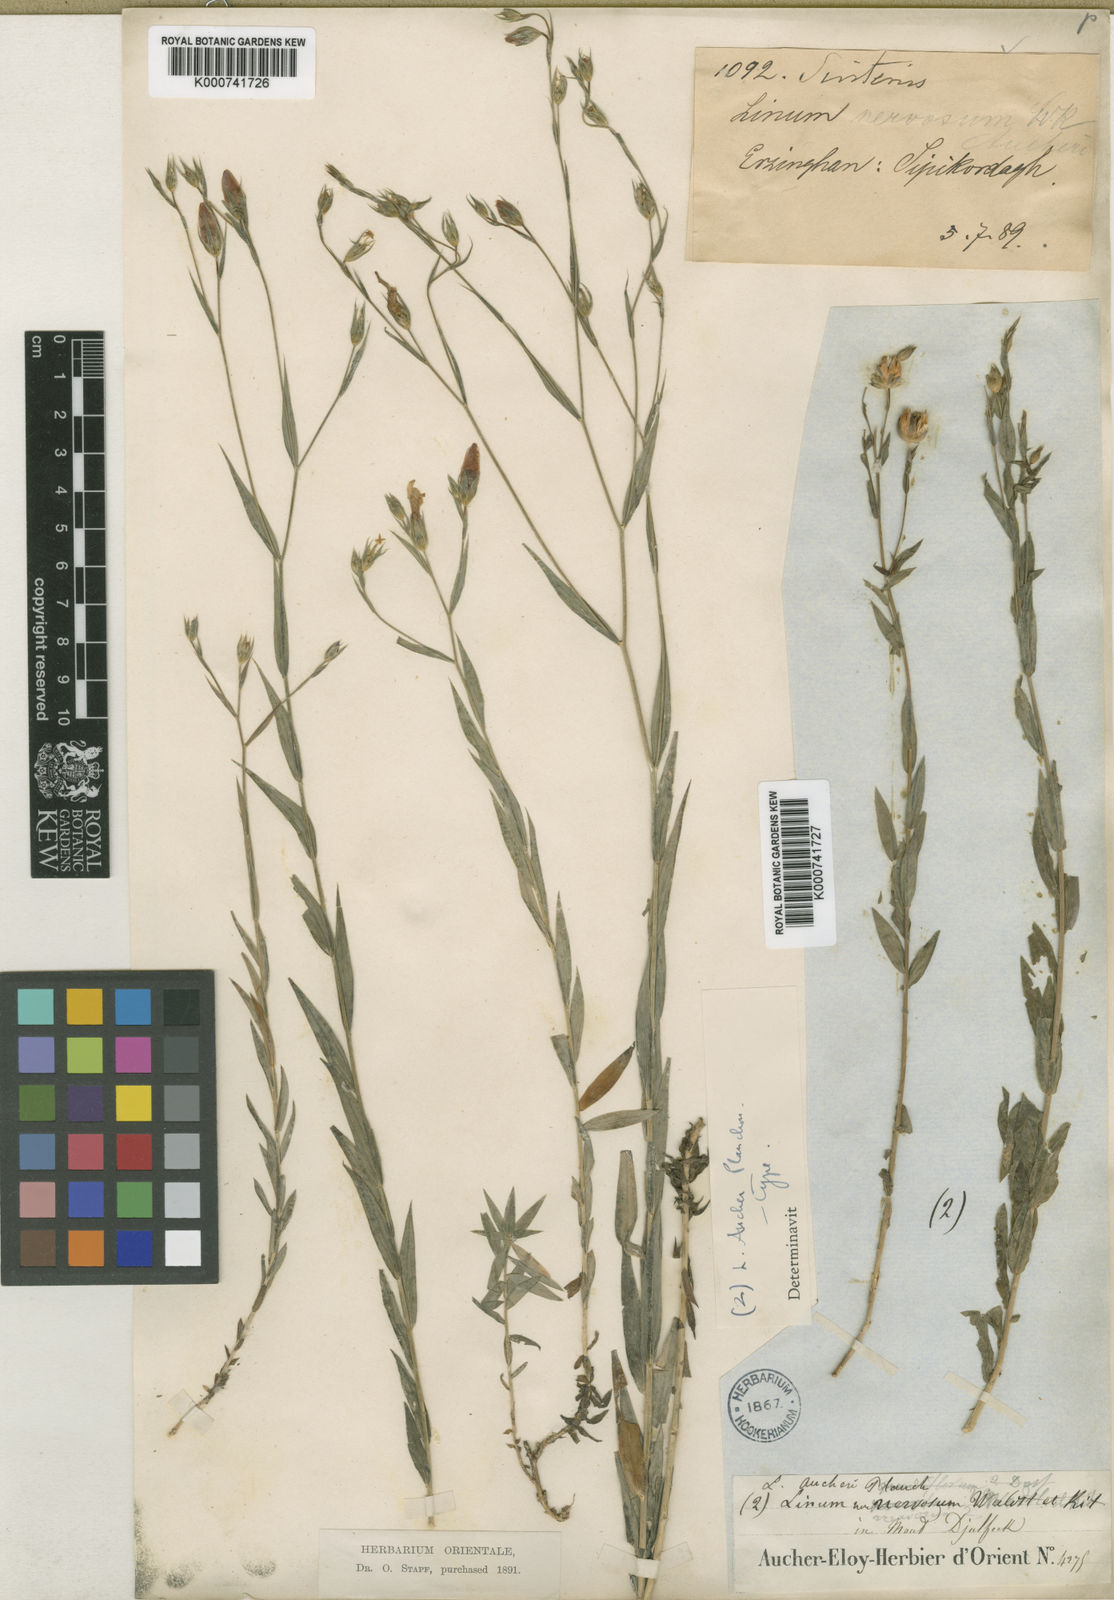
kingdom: Plantae
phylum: Tracheophyta
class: Magnoliopsida
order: Malpighiales
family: Linaceae
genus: Linum
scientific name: Linum nervosum
